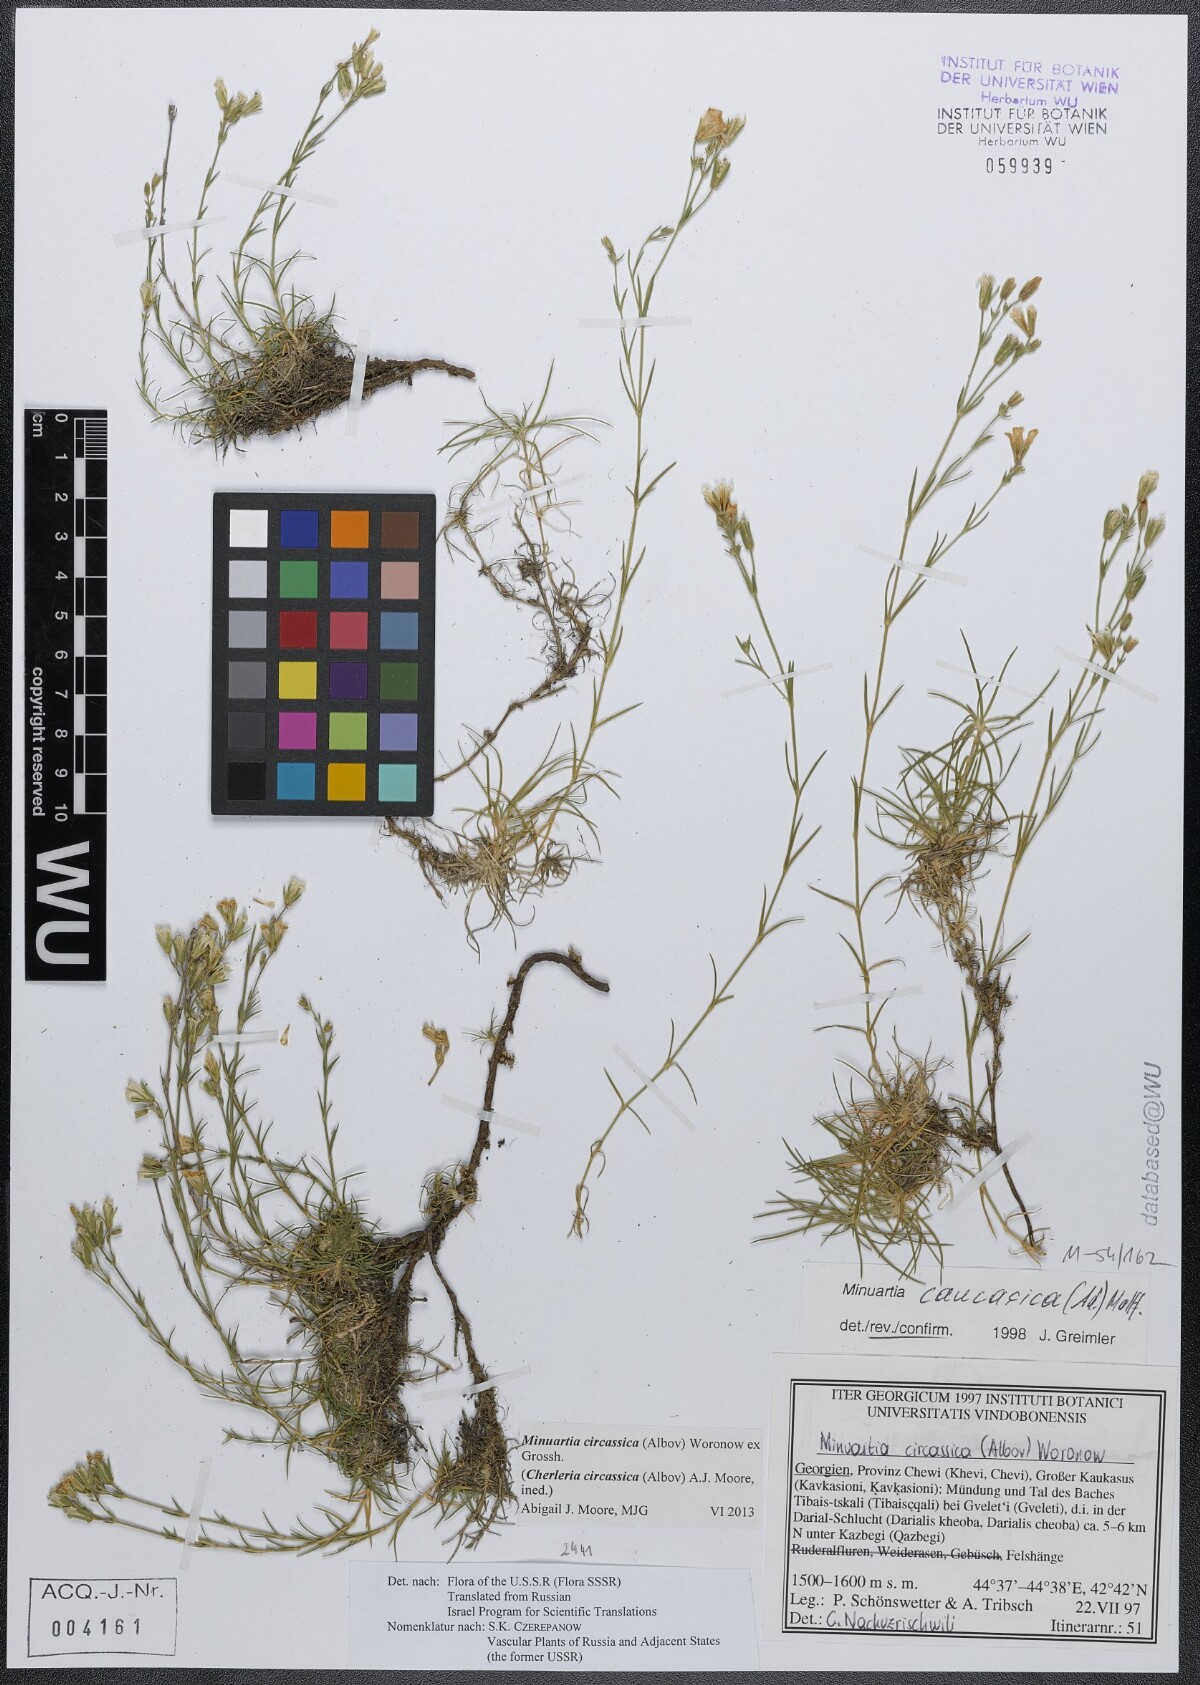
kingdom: Plantae
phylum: Tracheophyta
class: Magnoliopsida
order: Caryophyllales
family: Caryophyllaceae
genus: Cherleria
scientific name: Cherleria circassica
